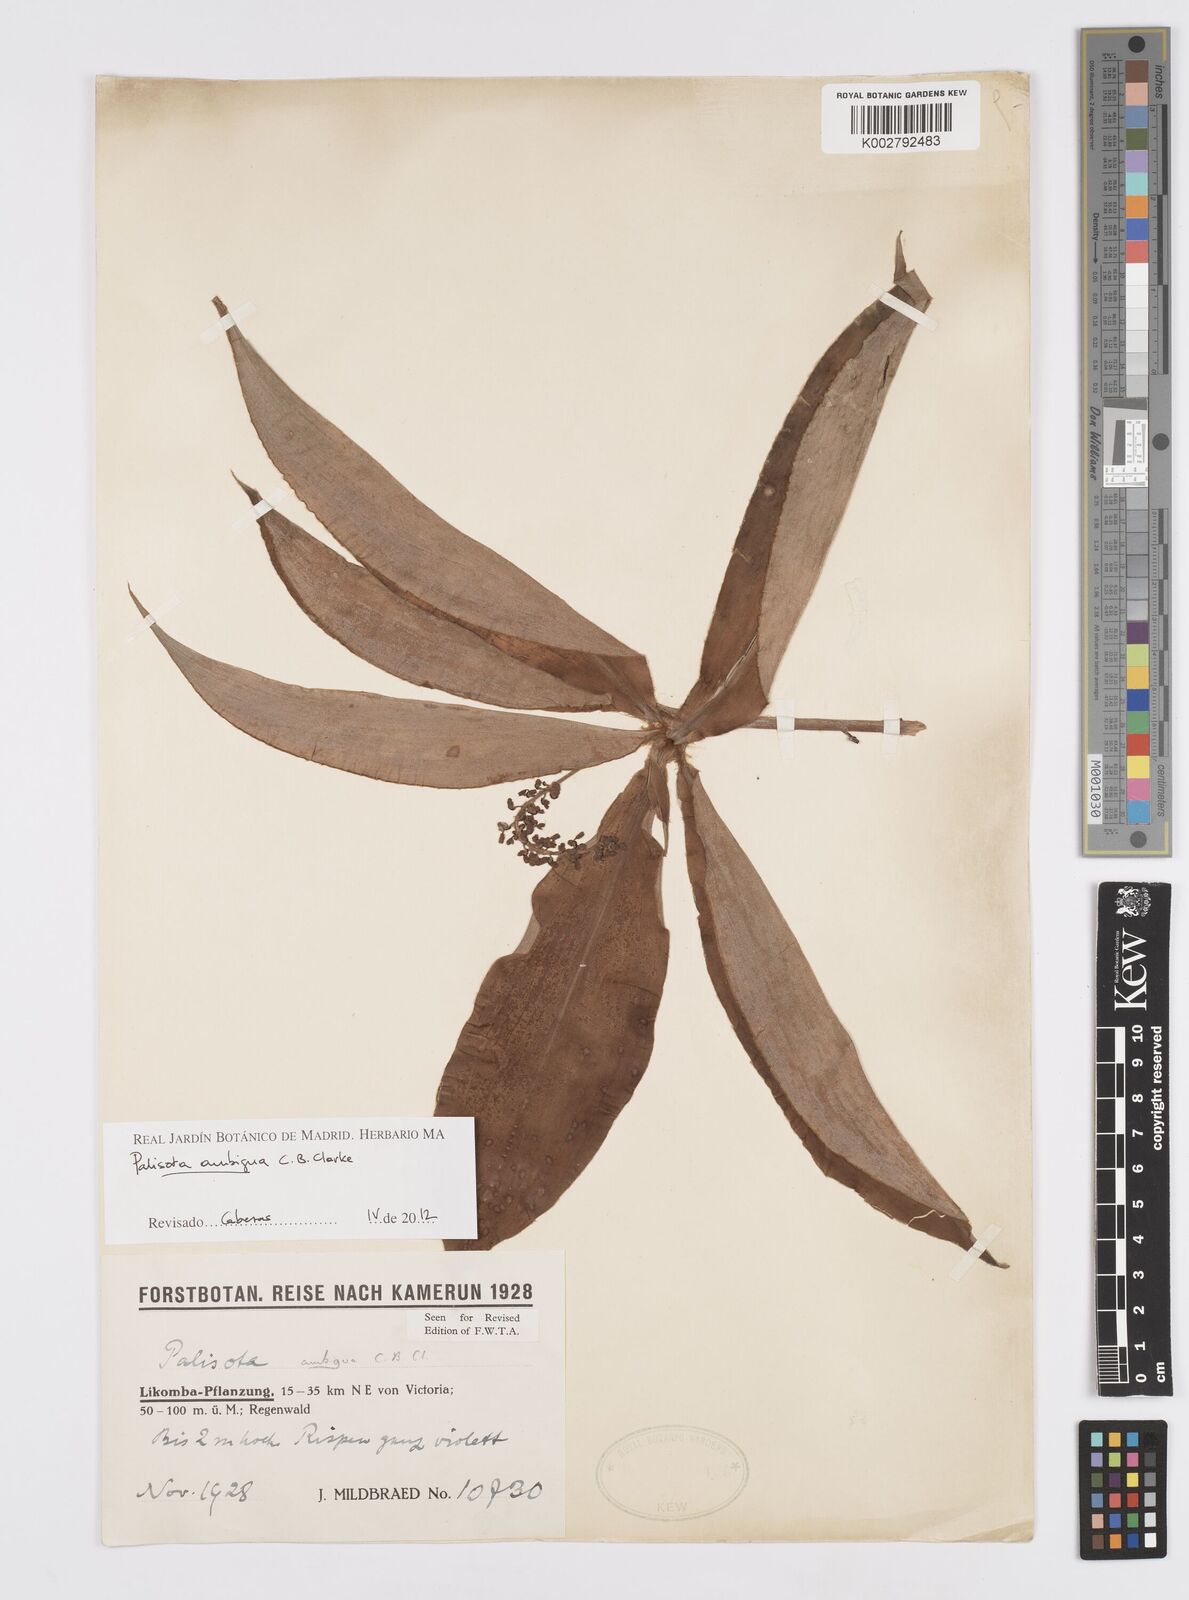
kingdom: Plantae
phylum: Tracheophyta
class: Liliopsida
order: Commelinales
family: Commelinaceae
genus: Palisota
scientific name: Palisota ambigua
